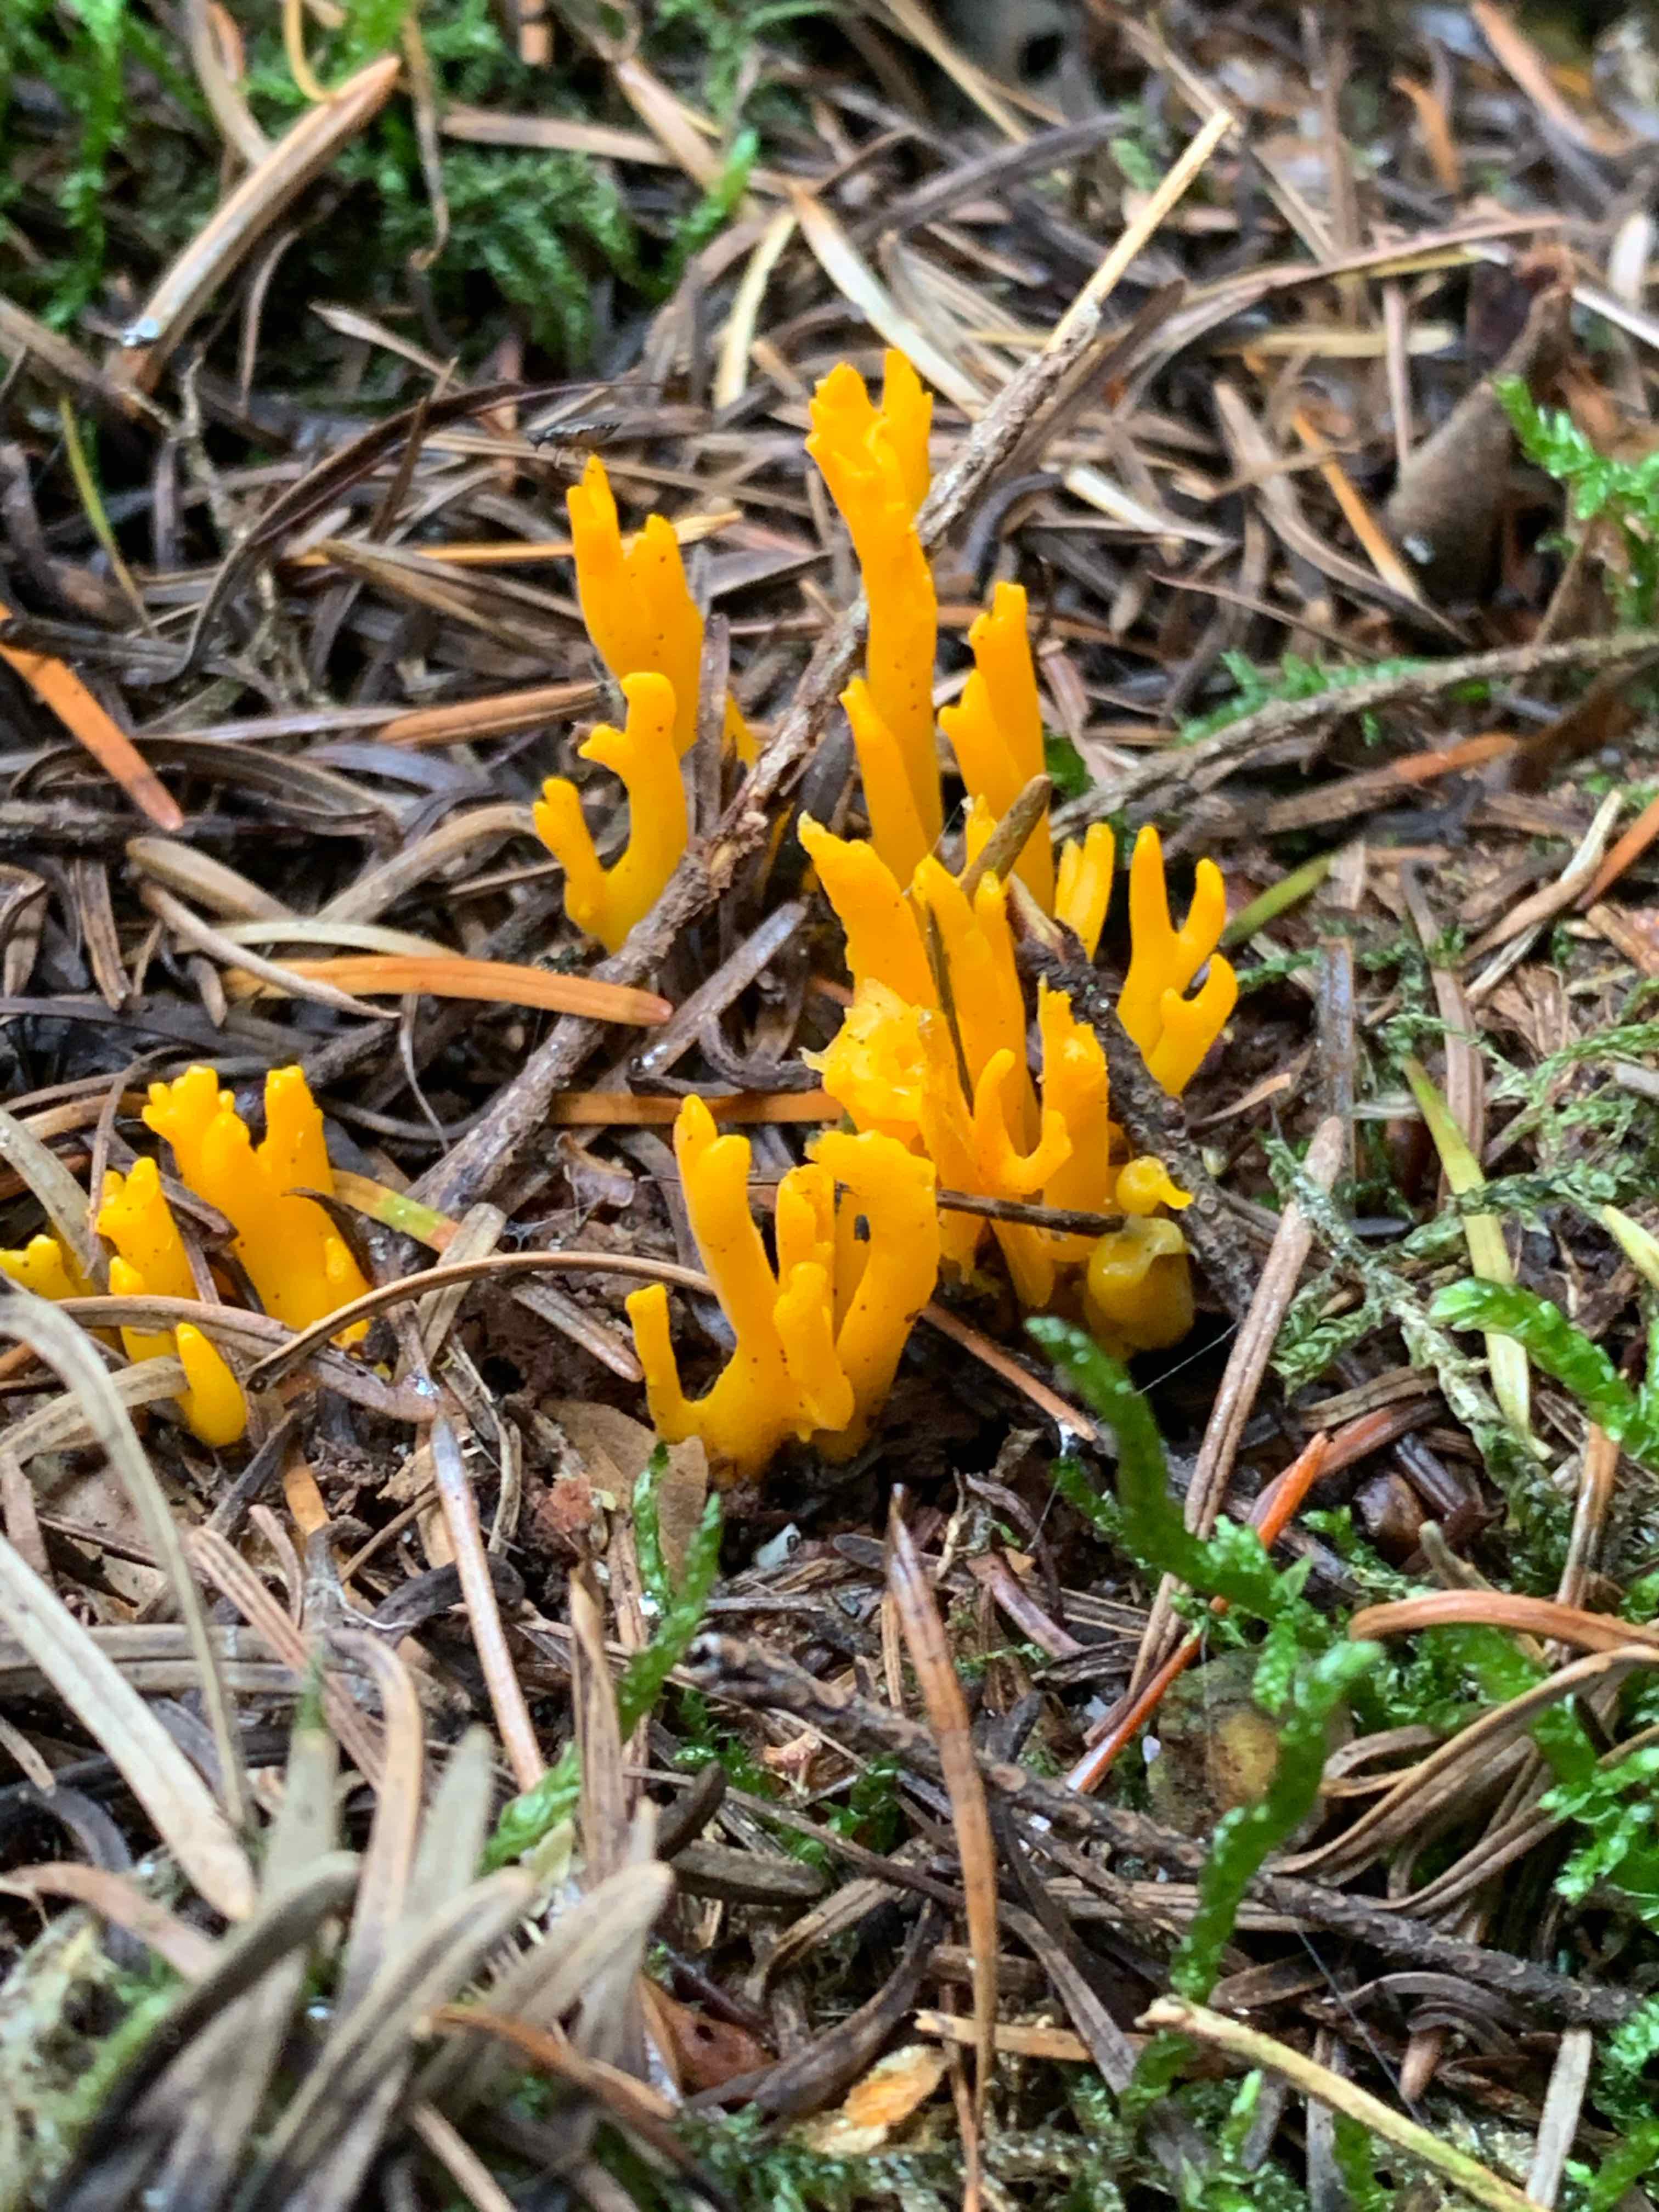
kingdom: Fungi
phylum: Basidiomycota
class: Dacrymycetes
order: Dacrymycetales
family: Dacrymycetaceae
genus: Calocera
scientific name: Calocera viscosa
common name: almindelig guldgaffel
